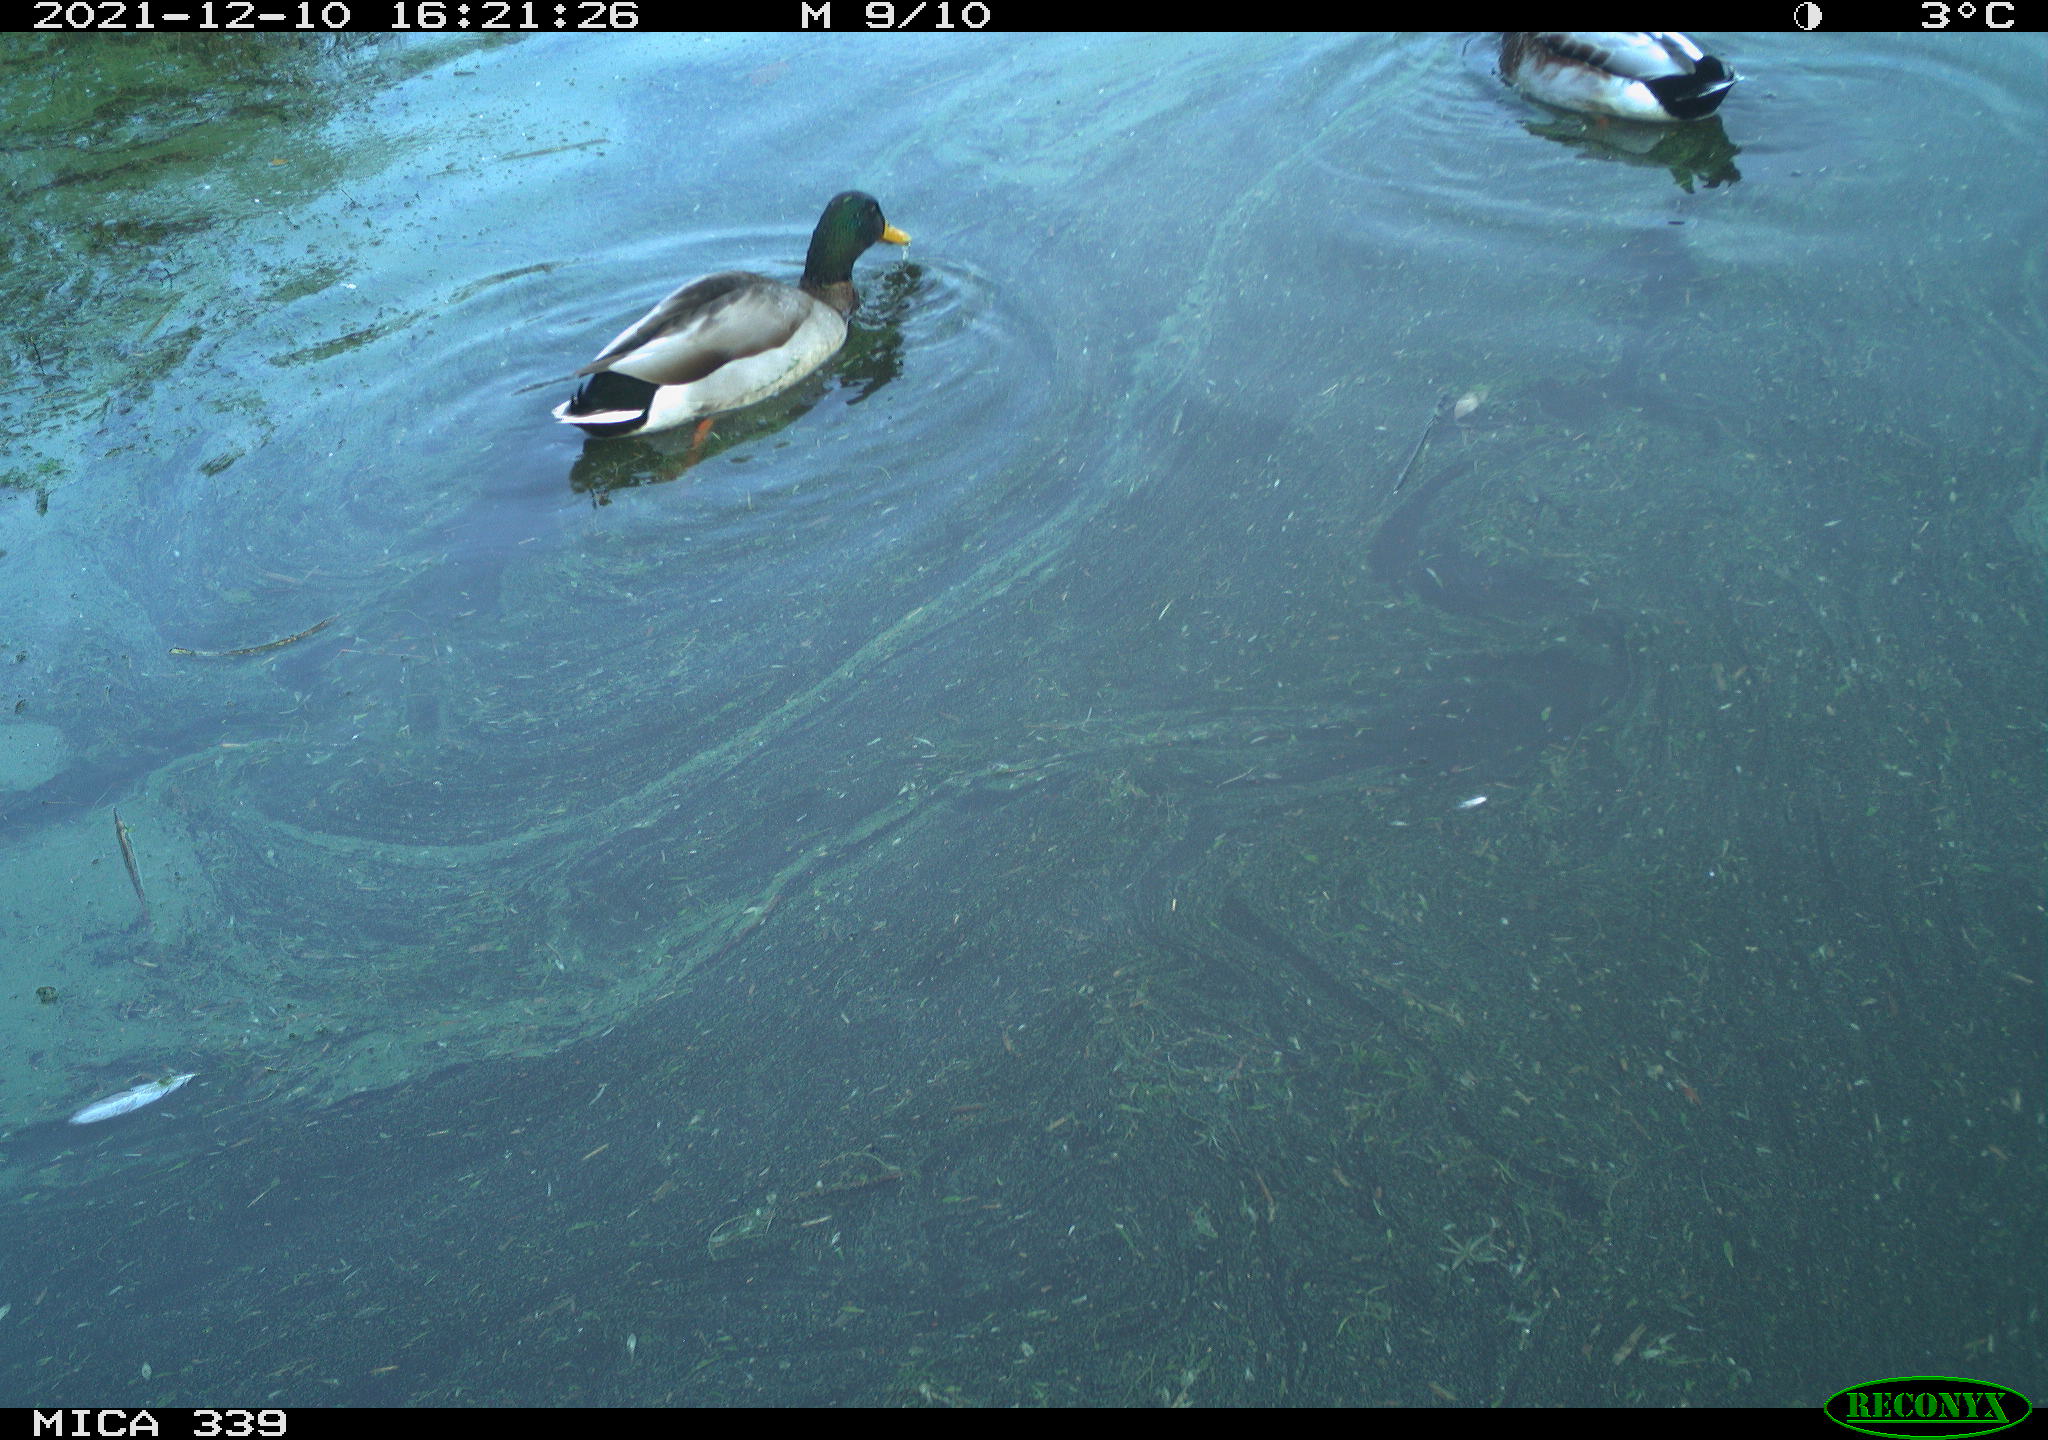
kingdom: Animalia
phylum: Chordata
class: Aves
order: Anseriformes
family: Anatidae
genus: Anas
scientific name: Anas platyrhynchos
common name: Mallard
